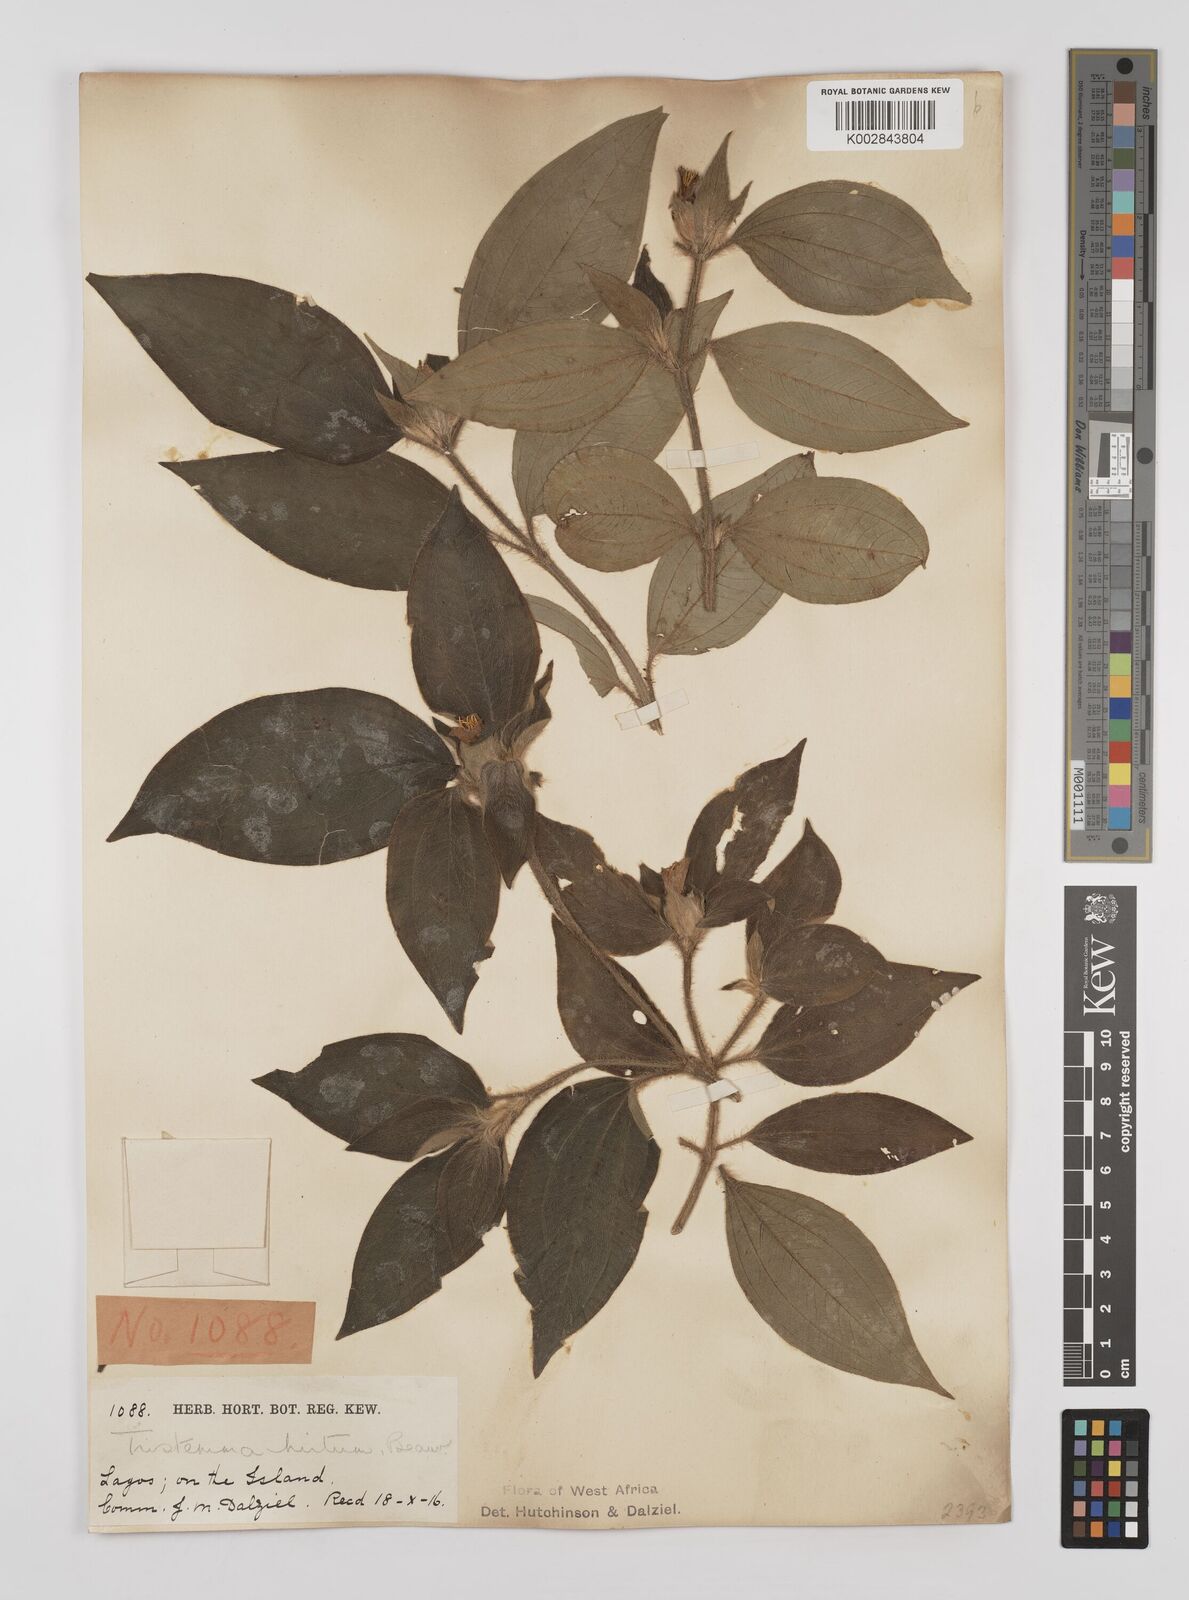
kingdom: Plantae
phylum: Tracheophyta
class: Magnoliopsida
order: Myrtales
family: Melastomataceae
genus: Tristemma
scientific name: Tristemma hirtum
